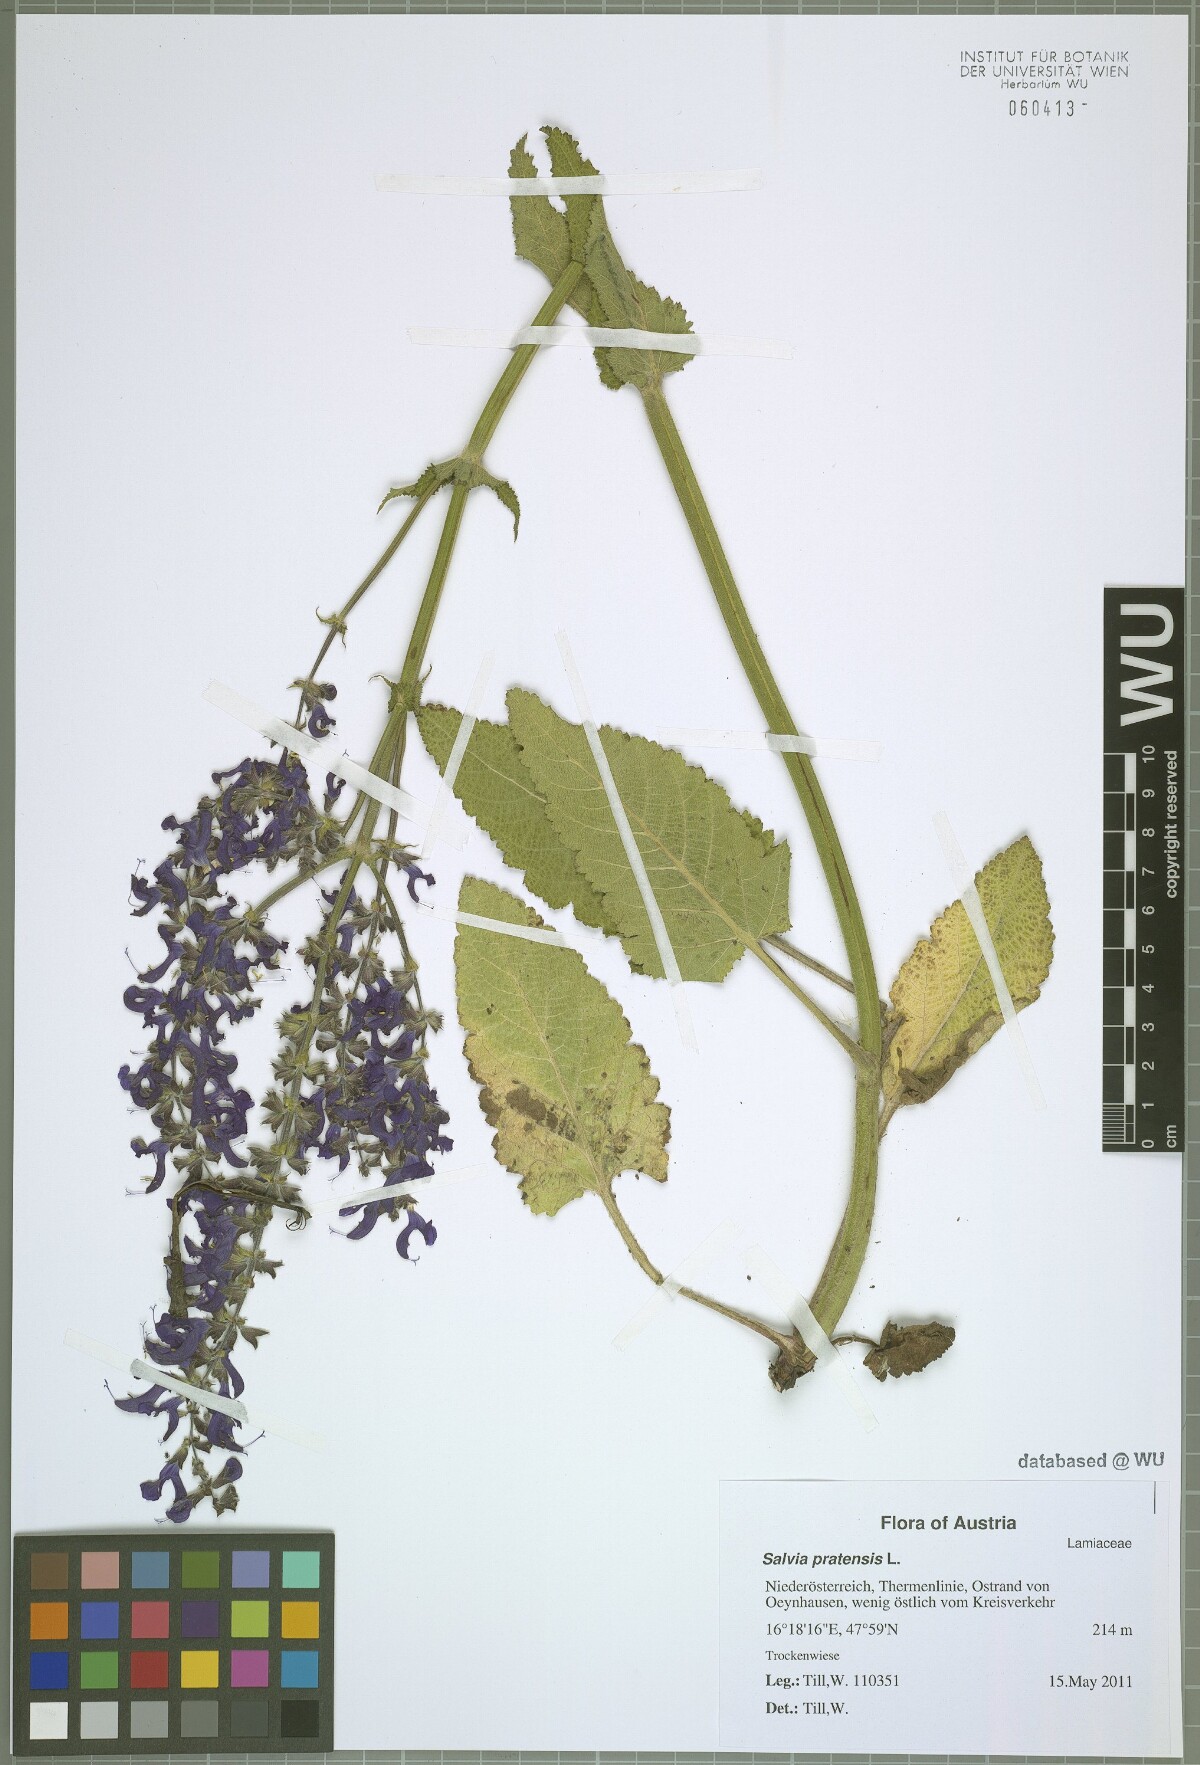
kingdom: Plantae
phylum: Tracheophyta
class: Magnoliopsida
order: Lamiales
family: Lamiaceae
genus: Salvia
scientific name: Salvia pratensis
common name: Meadow sage
